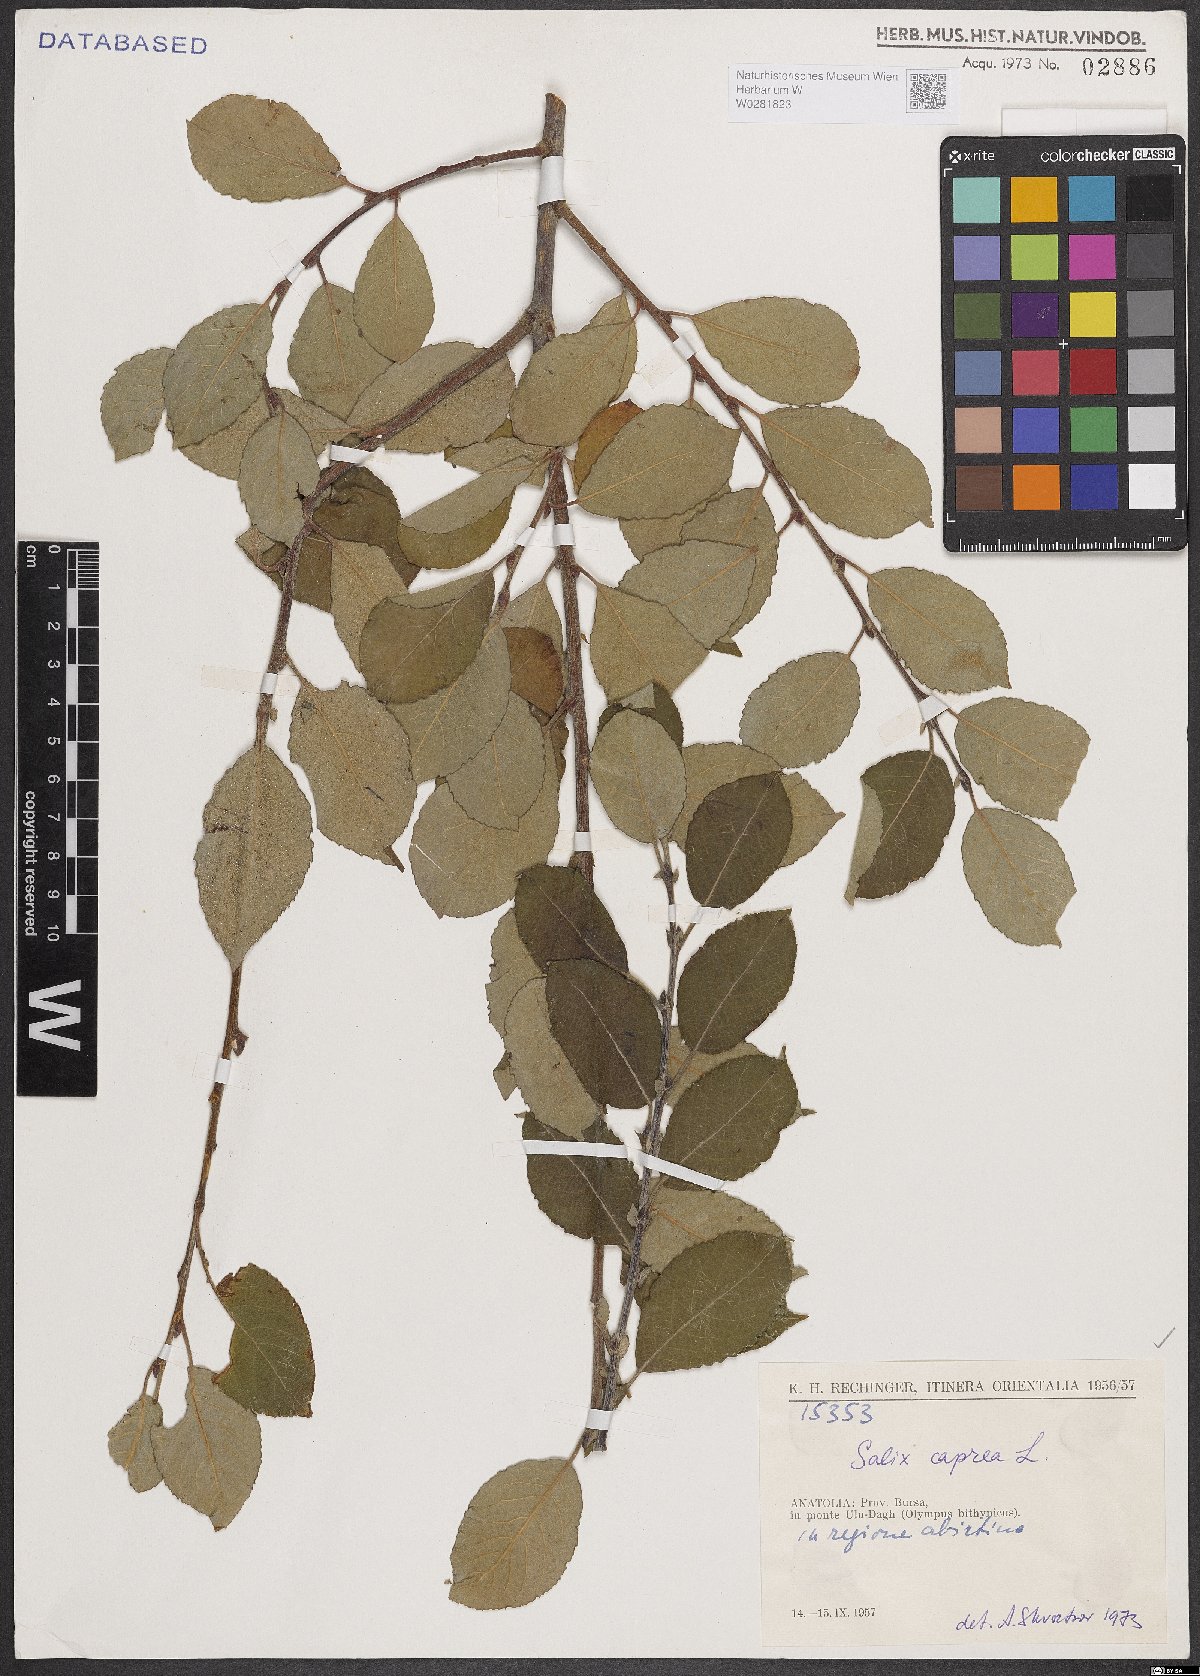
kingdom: Plantae
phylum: Tracheophyta
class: Magnoliopsida
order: Malpighiales
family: Salicaceae
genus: Salix
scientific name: Salix caprea
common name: Goat willow
